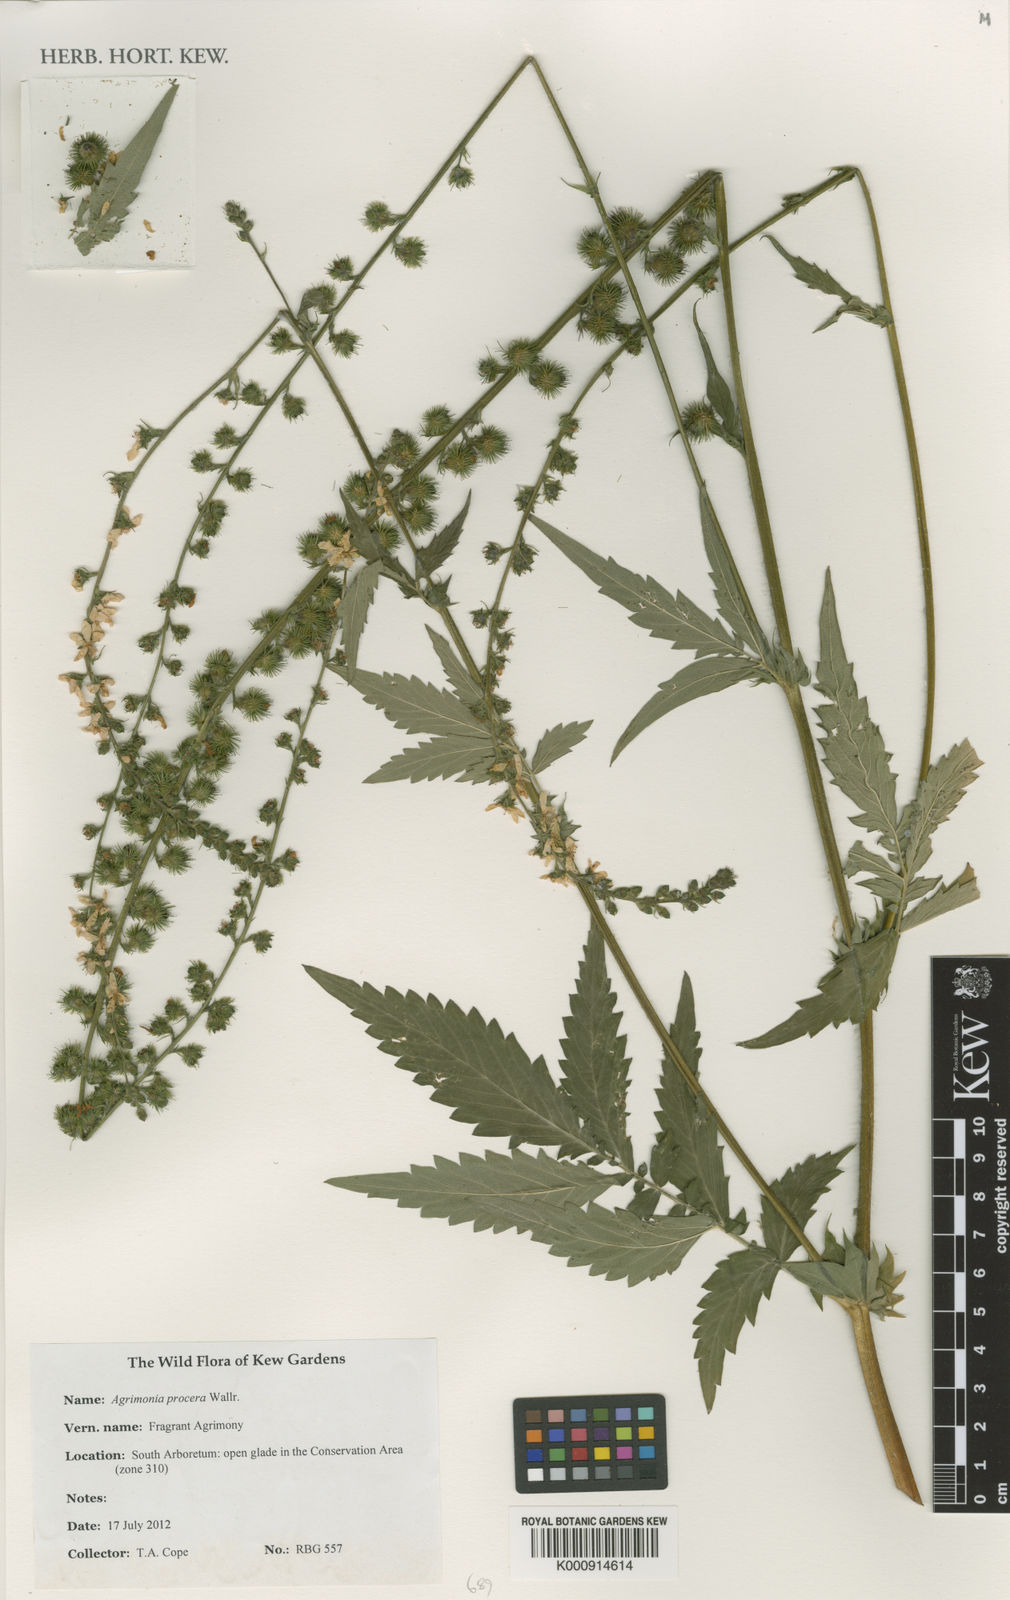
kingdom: Plantae
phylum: Tracheophyta
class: Magnoliopsida
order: Rosales
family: Rosaceae
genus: Agrimonia
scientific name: Agrimonia procera
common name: Fragrant agrimony
